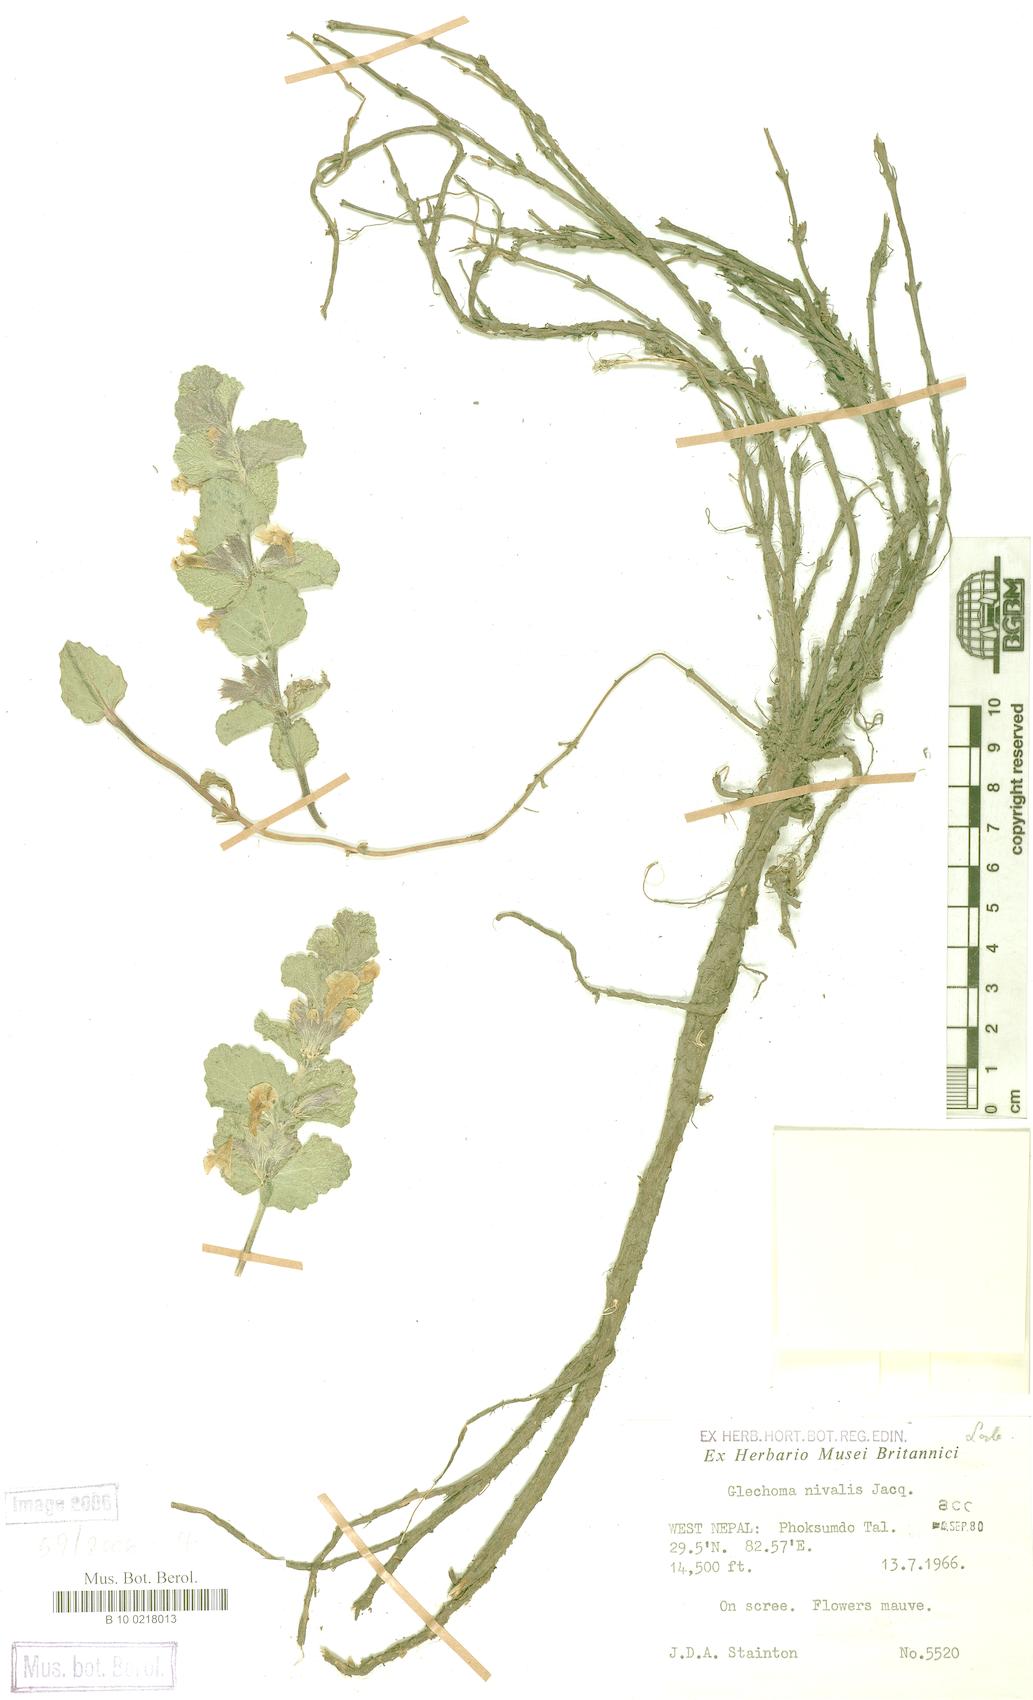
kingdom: Plantae
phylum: Tracheophyta
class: Magnoliopsida
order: Lamiales
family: Lamiaceae
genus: Nepeta
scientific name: Nepeta nivalis
